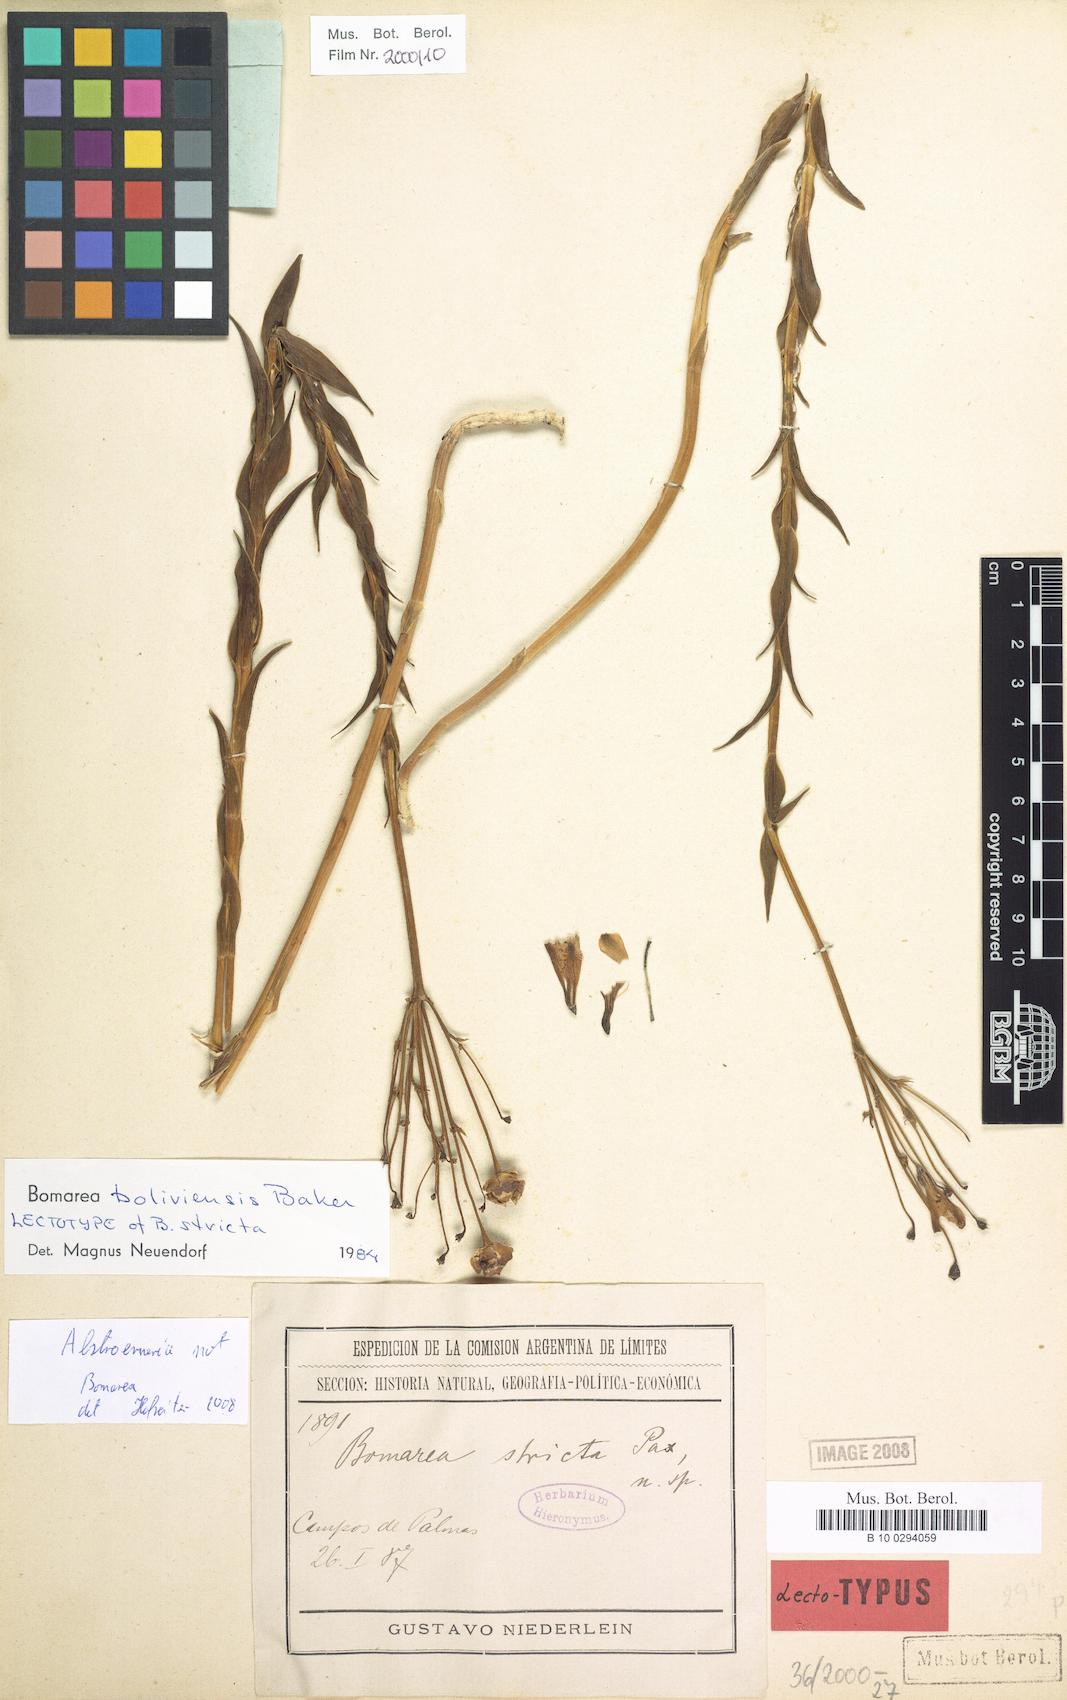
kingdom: Plantae
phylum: Tracheophyta
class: Liliopsida
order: Liliales
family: Alstroemeriaceae
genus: Bomarea
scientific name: Bomarea boliviensis
